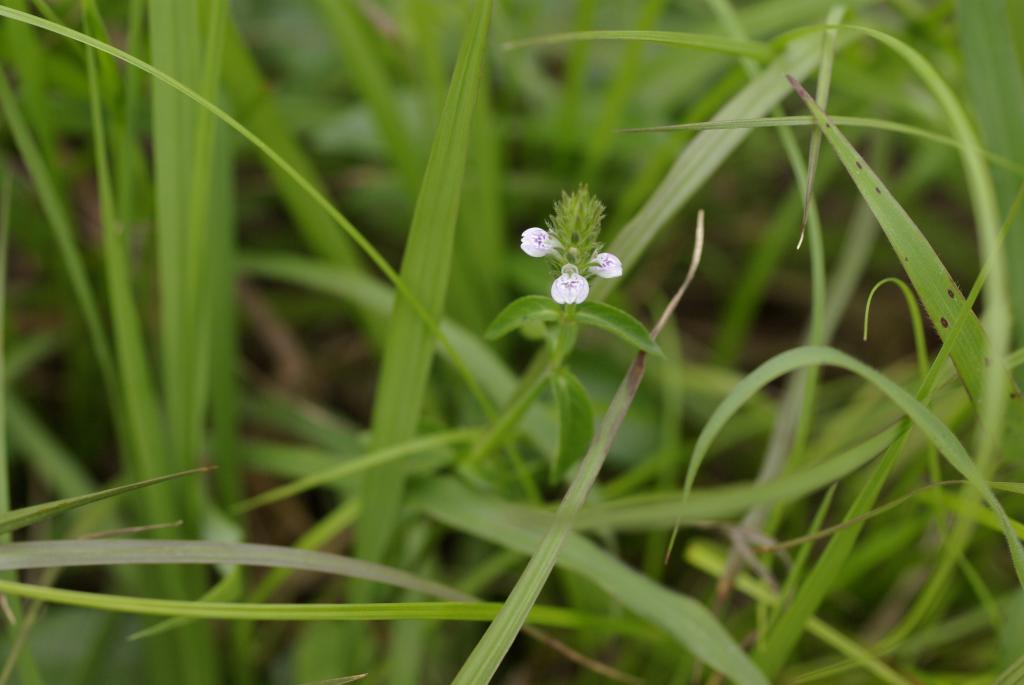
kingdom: Plantae
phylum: Tracheophyta
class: Magnoliopsida
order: Lamiales
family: Acanthaceae
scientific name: Acanthaceae
